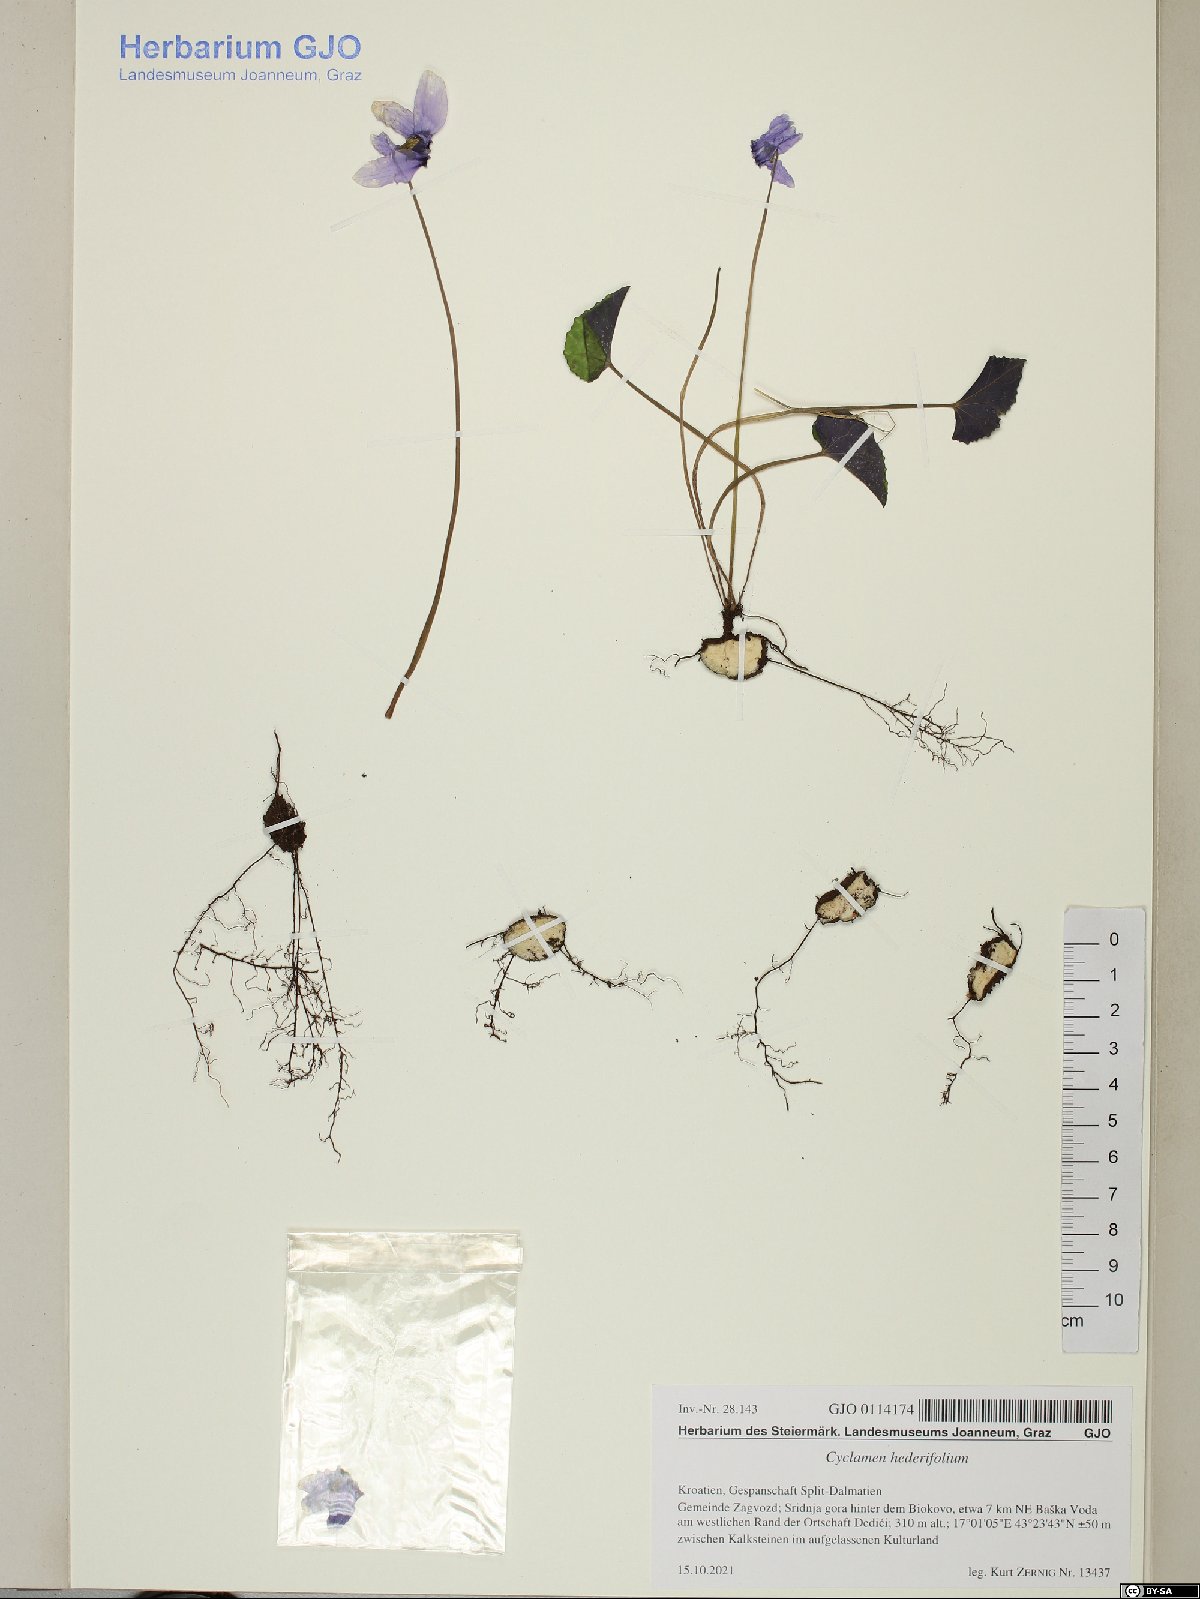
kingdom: Plantae
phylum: Tracheophyta
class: Magnoliopsida
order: Ericales
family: Primulaceae
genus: Cyclamen
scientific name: Cyclamen hederifolium
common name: Sowbread
